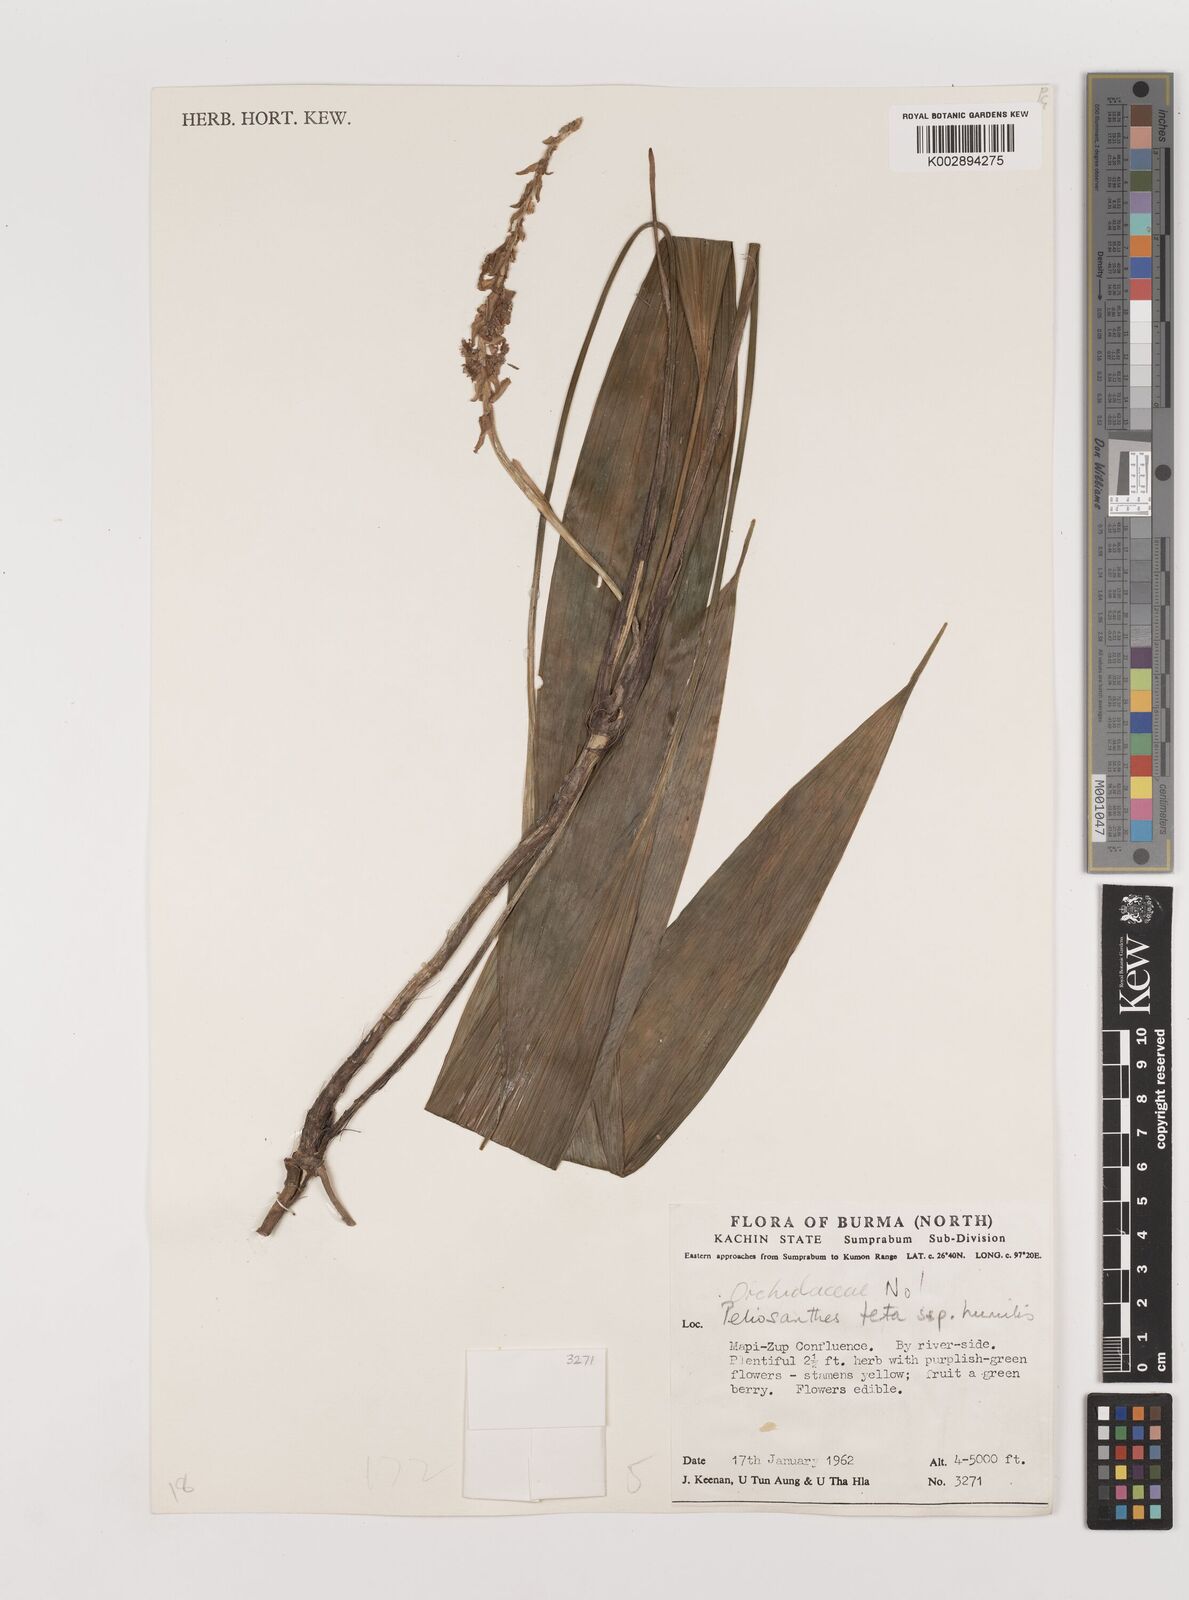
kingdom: Plantae
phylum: Tracheophyta
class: Liliopsida
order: Asparagales
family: Asparagaceae
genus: Peliosanthes
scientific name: Peliosanthes teta
